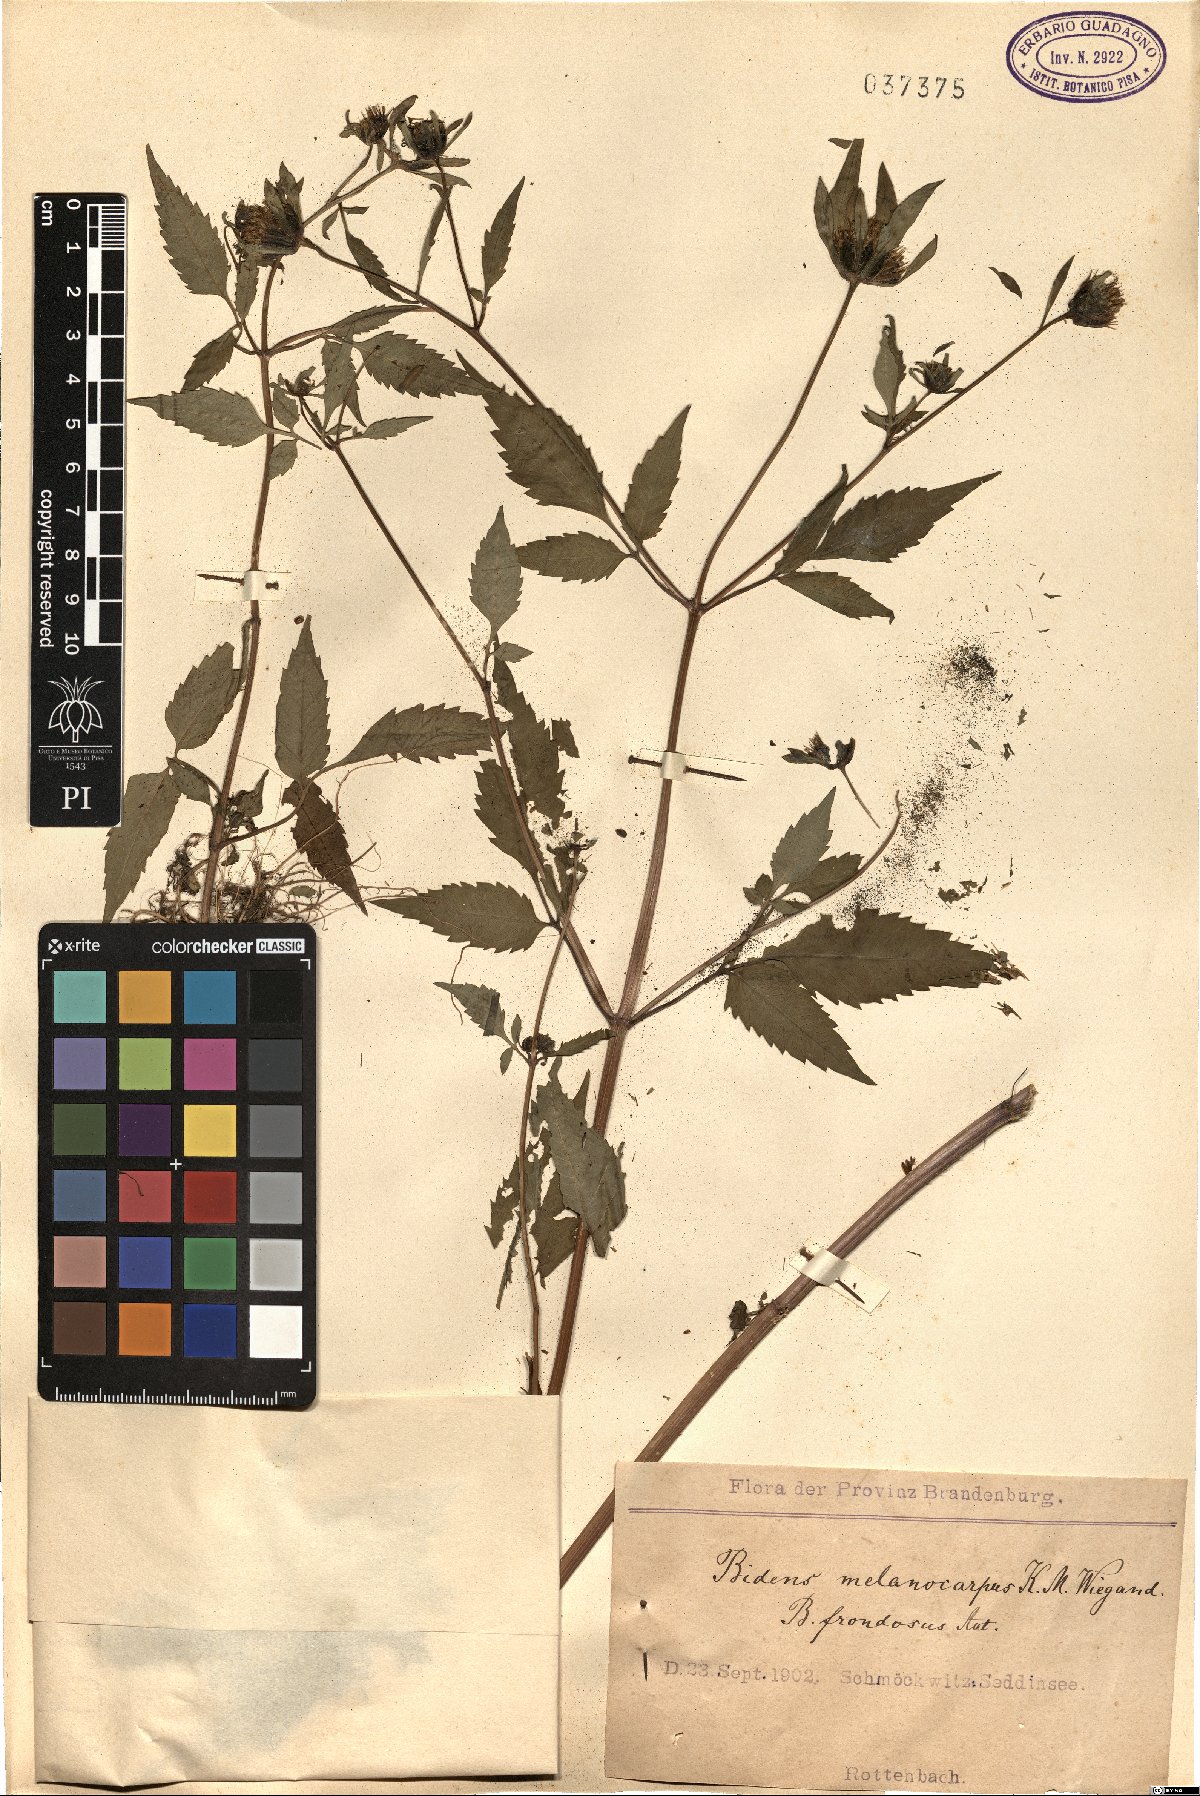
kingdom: Plantae
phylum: Tracheophyta
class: Magnoliopsida
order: Asterales
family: Asteraceae
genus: Bidens
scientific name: Bidens frondosa
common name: Beggarticks
